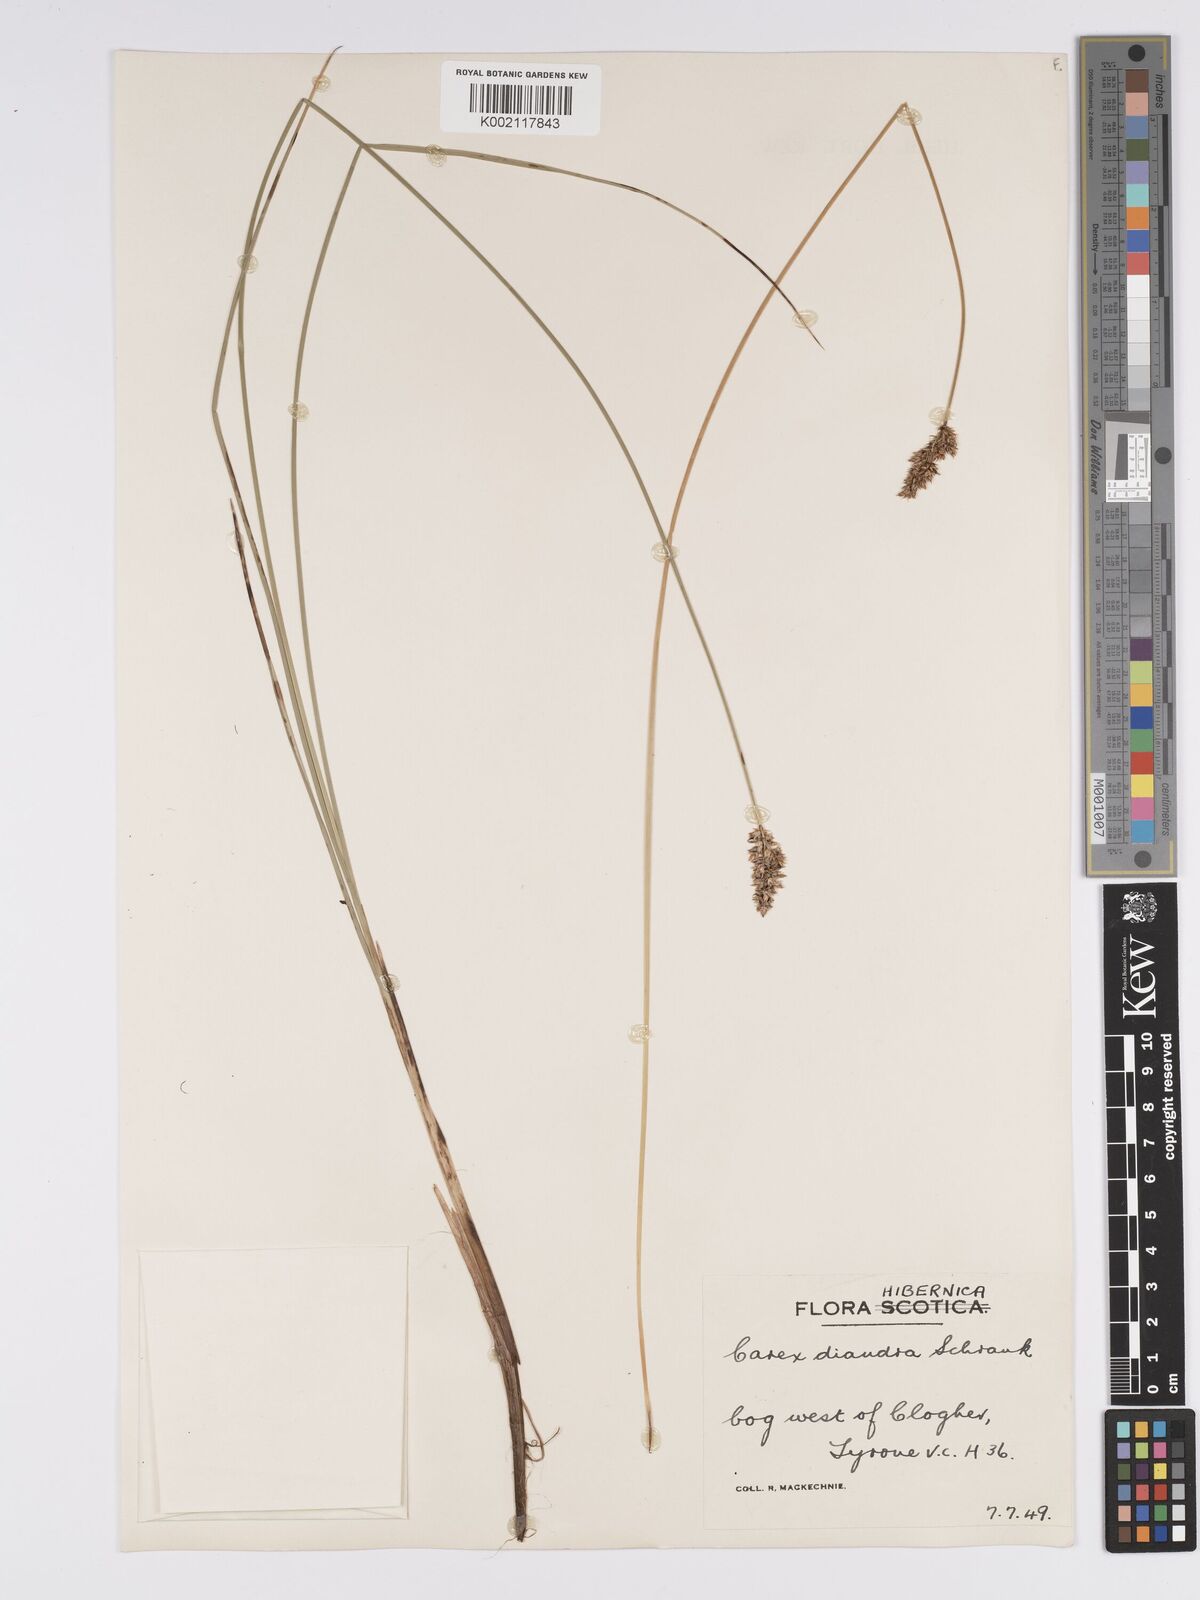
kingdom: Plantae
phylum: Tracheophyta
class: Liliopsida
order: Poales
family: Cyperaceae
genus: Carex
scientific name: Carex diandra
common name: Lesser tussock-sedge
